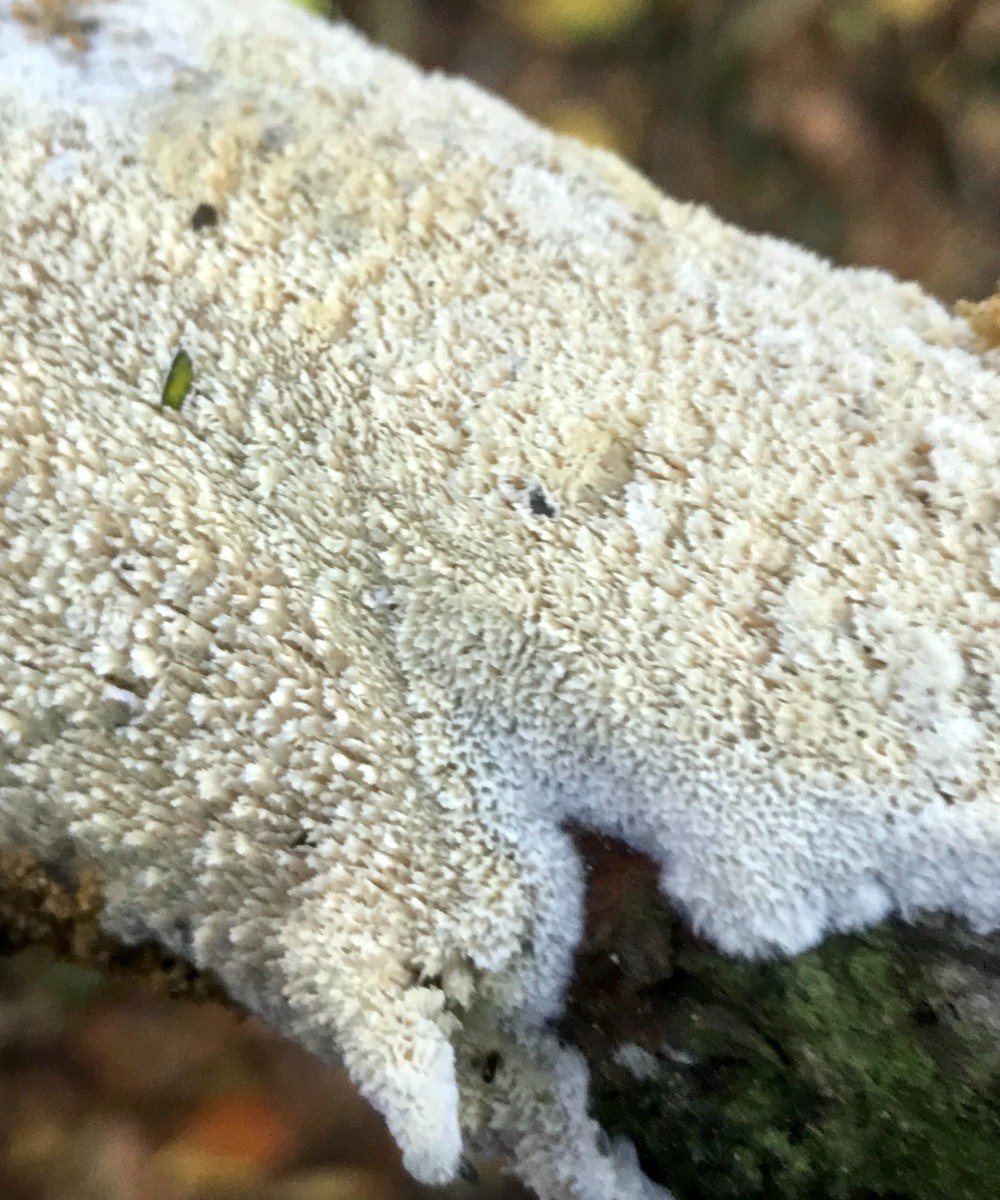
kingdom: Fungi
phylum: Basidiomycota
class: Agaricomycetes
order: Hymenochaetales
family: Schizoporaceae
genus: Schizopora
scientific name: Schizopora paradoxa
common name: hvid tandsvamp
